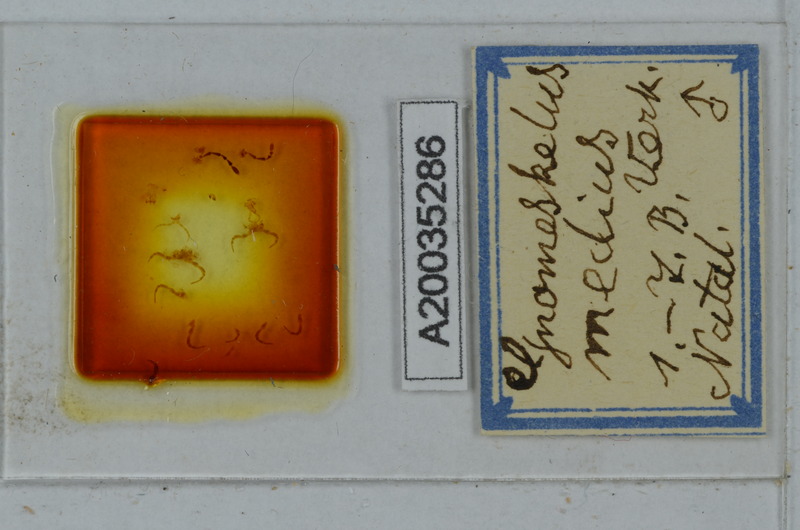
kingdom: Animalia
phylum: Arthropoda
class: Diplopoda
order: Polydesmida
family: Dalodesmidae
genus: Gnomeskelus
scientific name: Gnomeskelus medius
